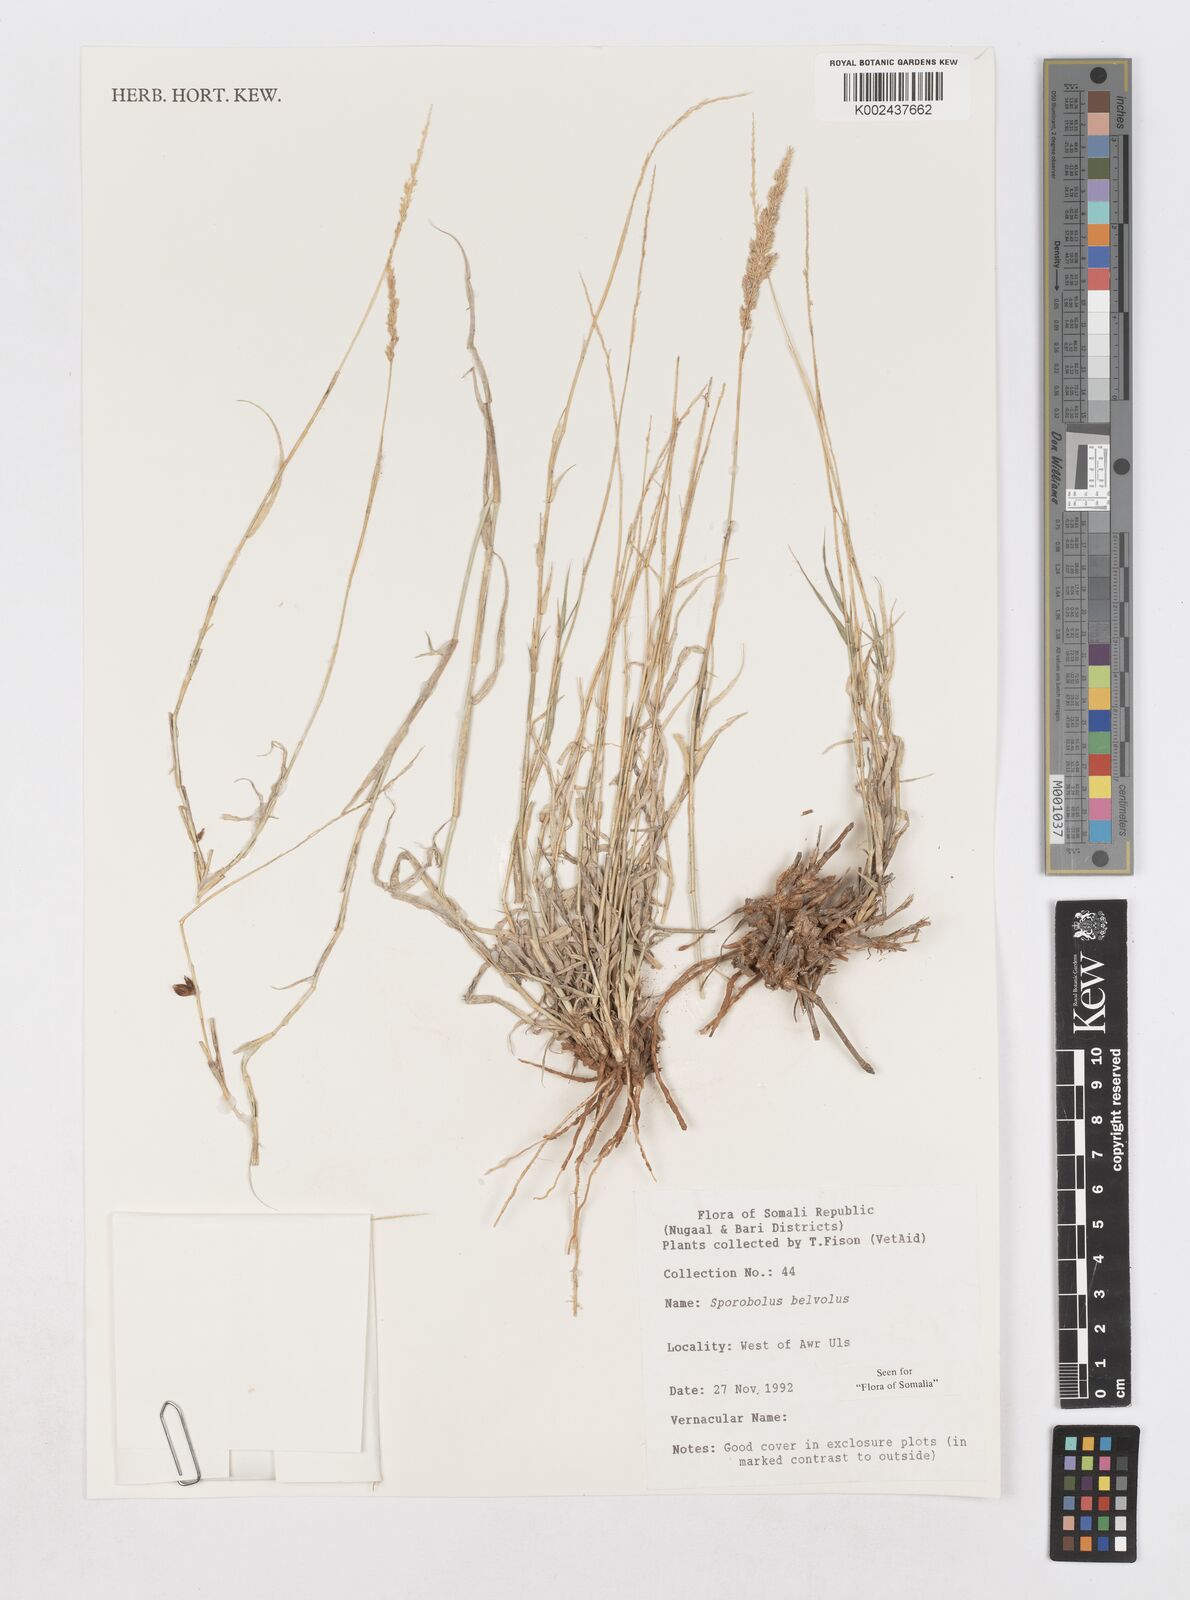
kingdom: Plantae
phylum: Tracheophyta
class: Liliopsida
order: Poales
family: Poaceae
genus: Sporobolus
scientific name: Sporobolus helvolus
